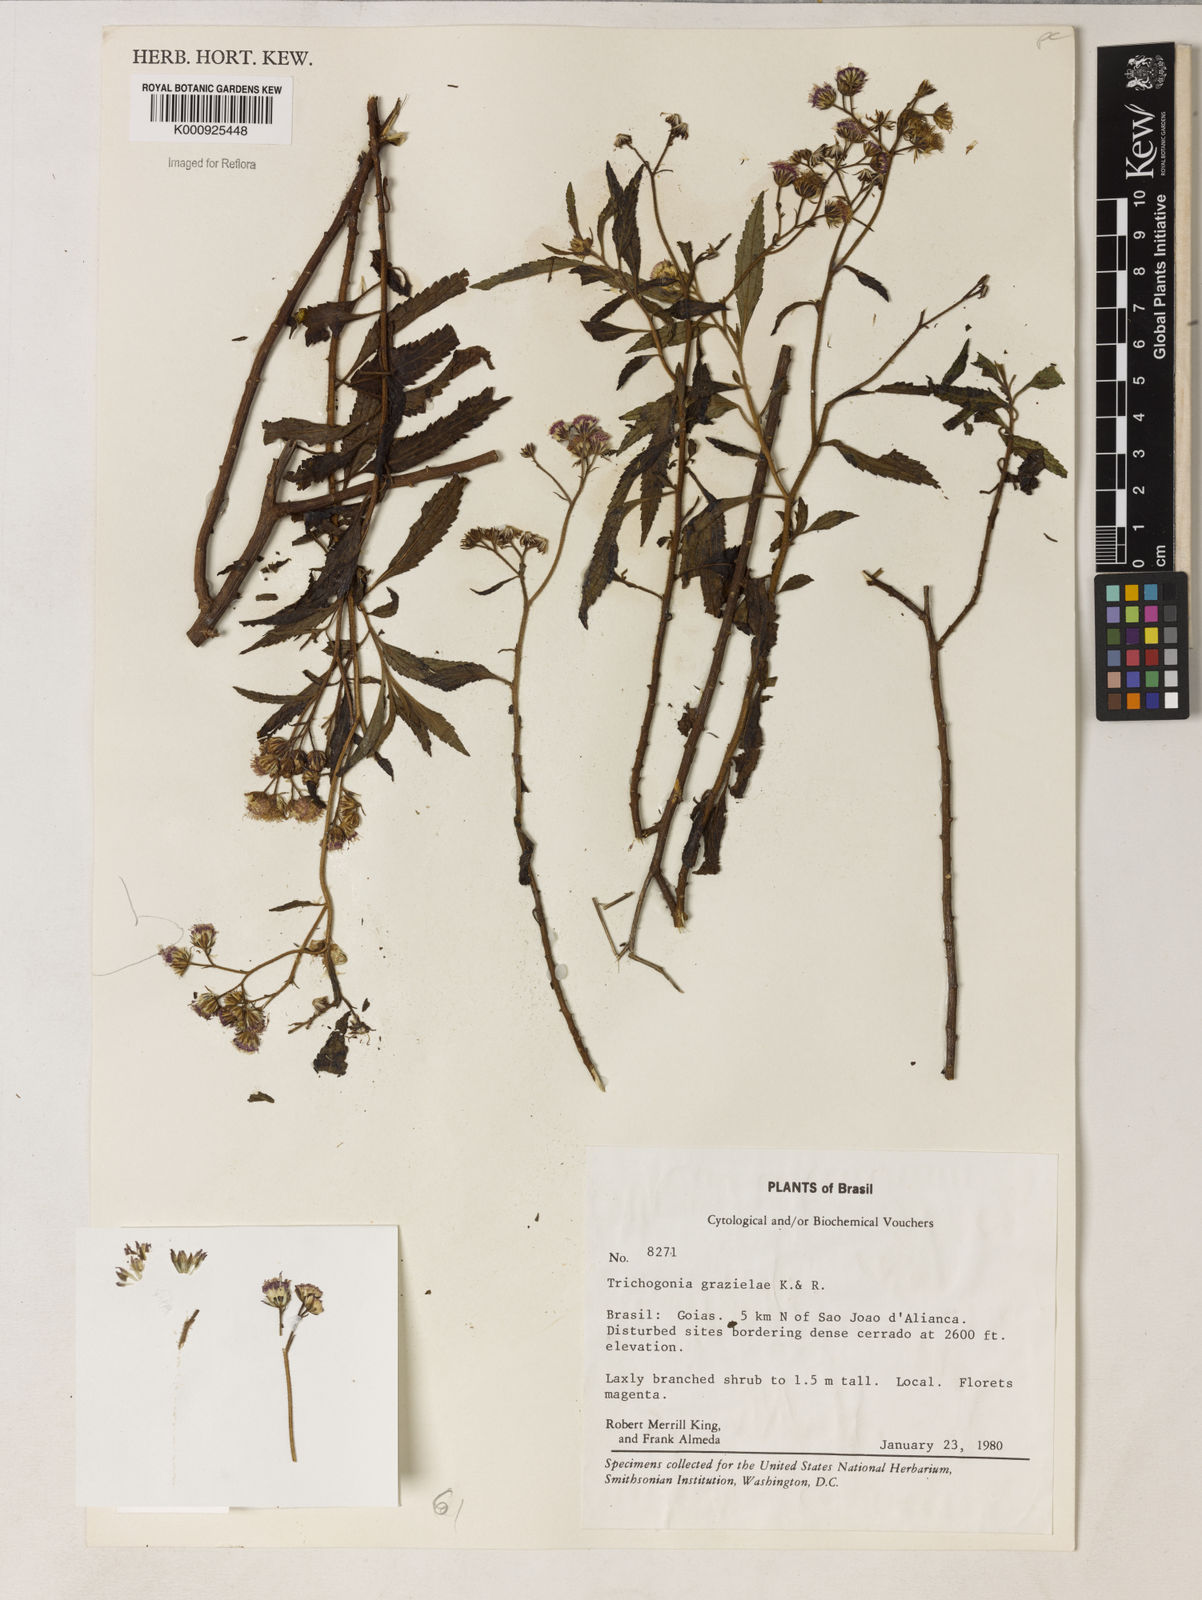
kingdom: Plantae
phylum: Tracheophyta
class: Magnoliopsida
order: Asterales
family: Asteraceae
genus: Trichogonia
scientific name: Trichogonia grazielae
